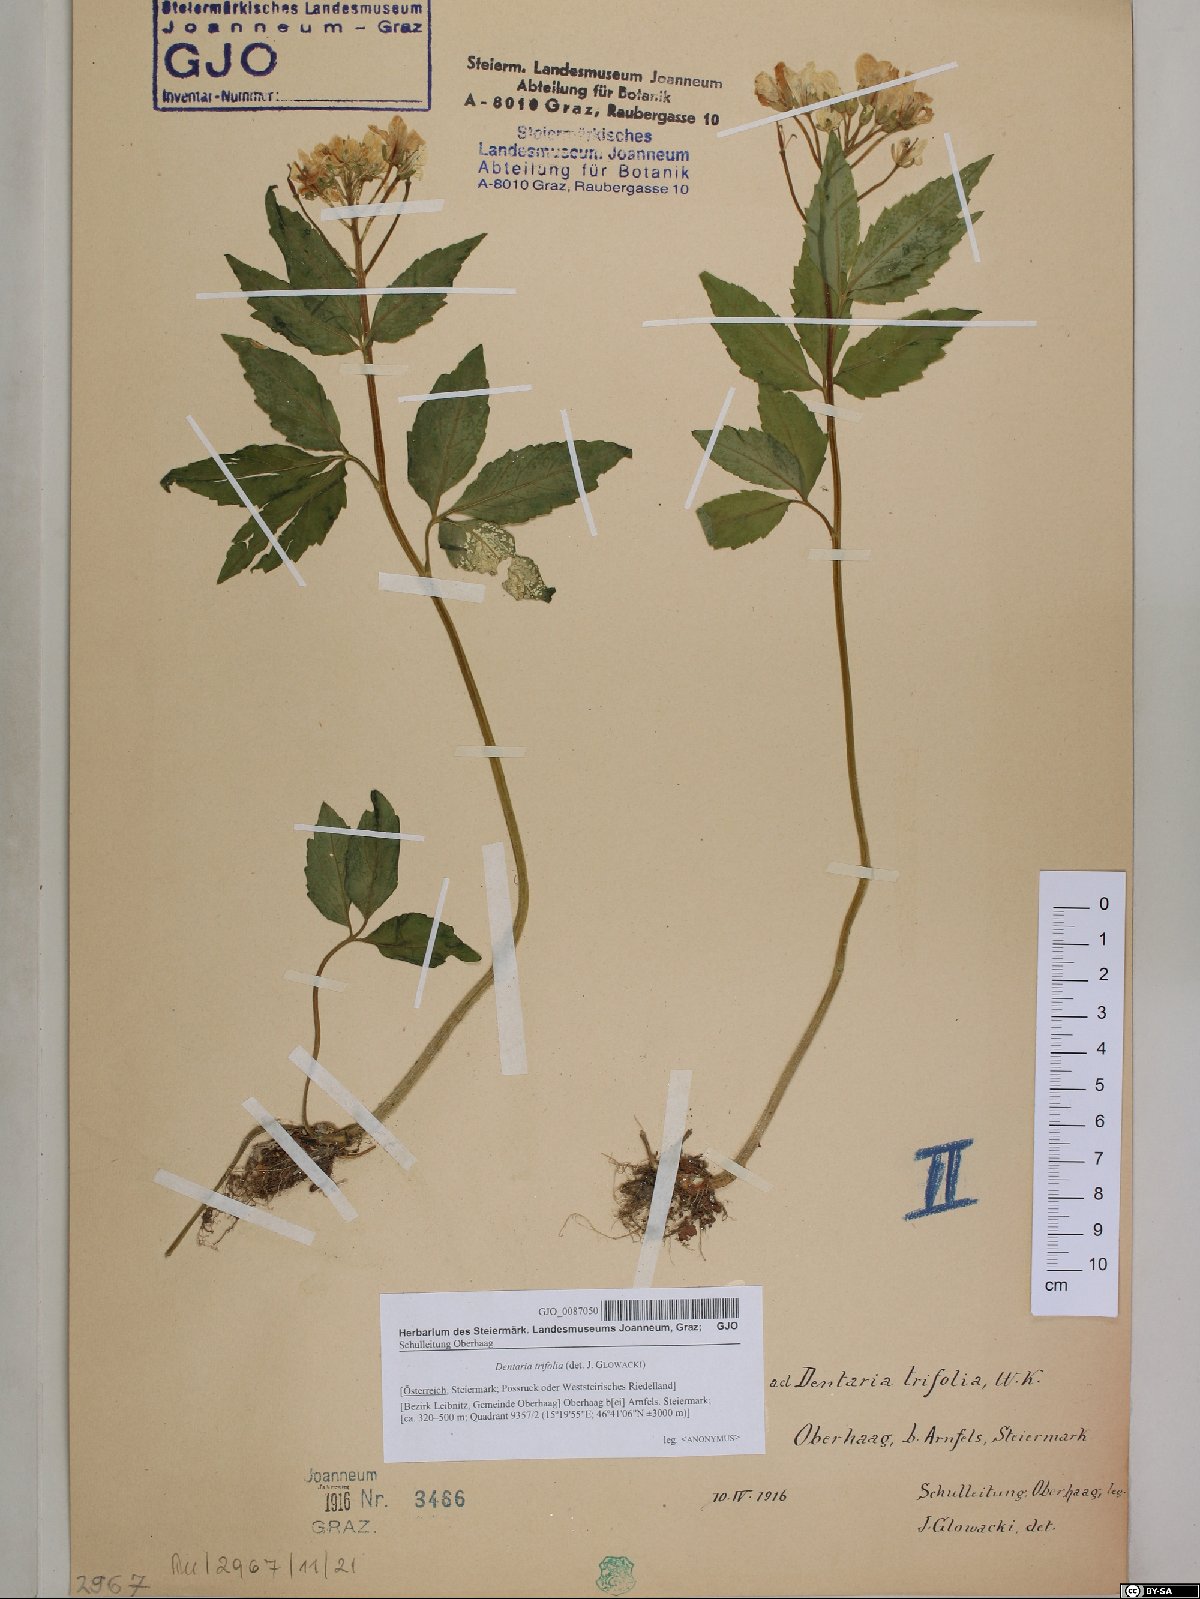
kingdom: Plantae
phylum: Tracheophyta
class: Magnoliopsida
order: Brassicales
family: Brassicaceae
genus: Cardamine
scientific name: Cardamine waldsteinii
